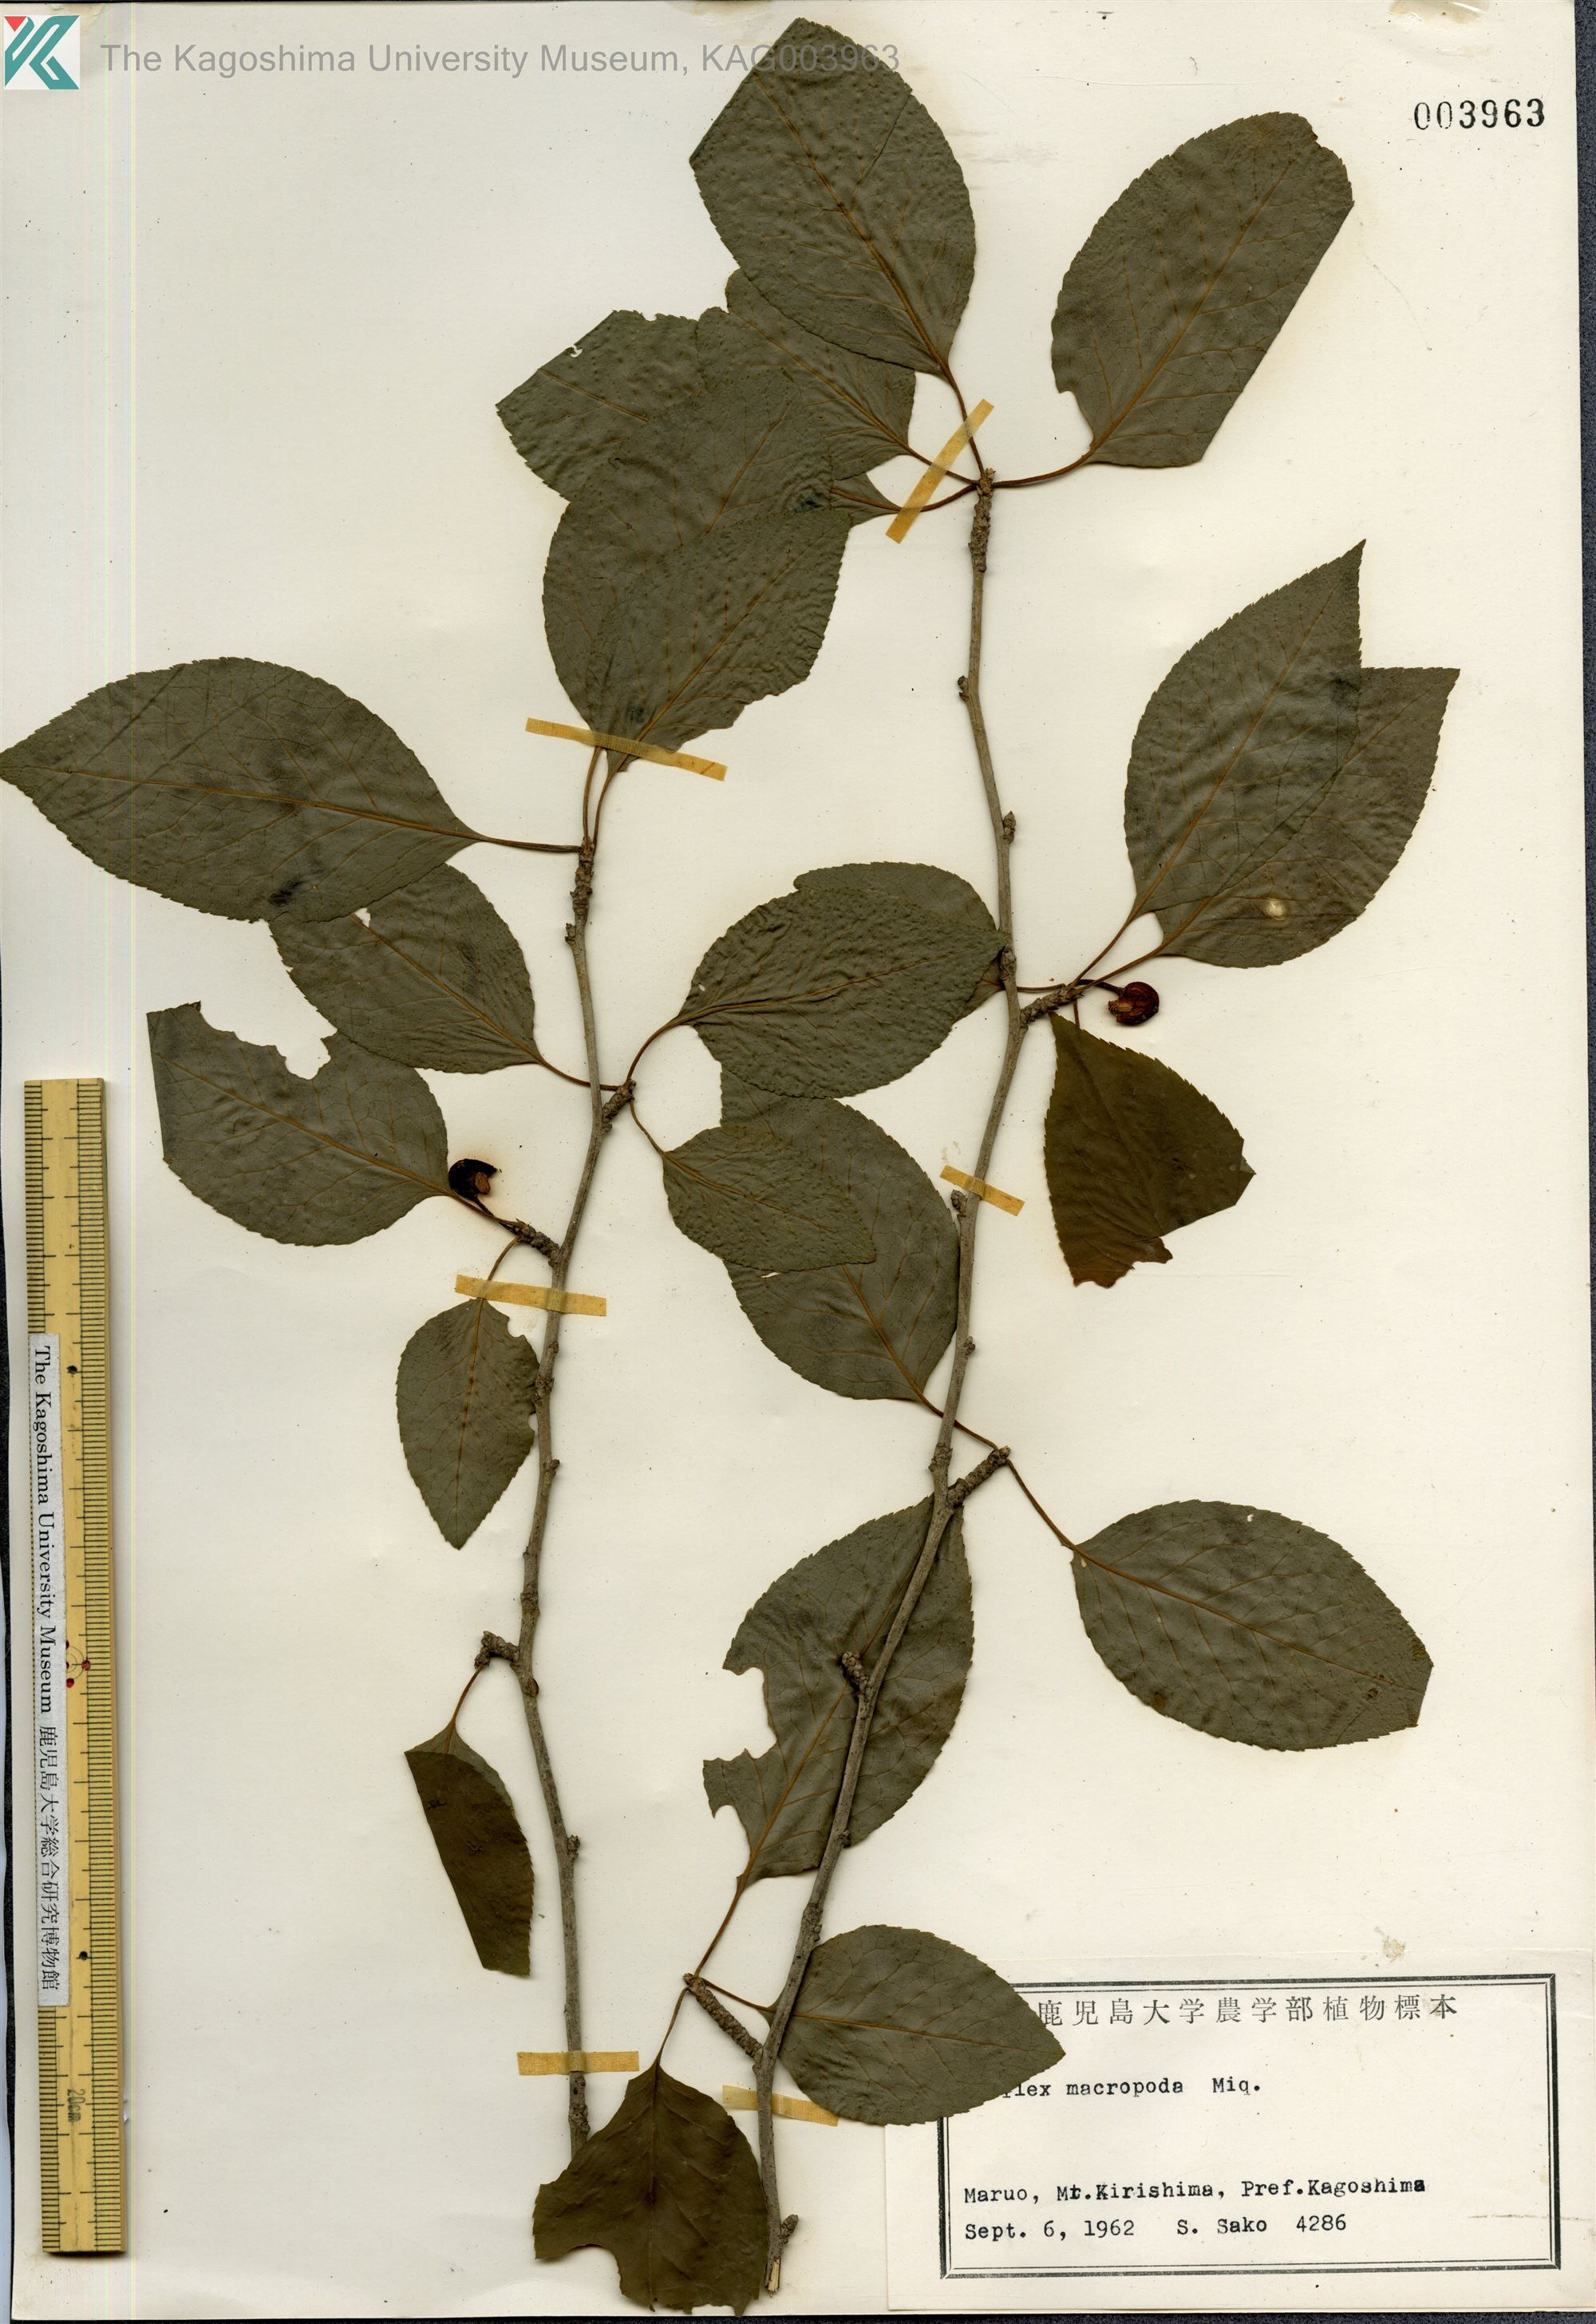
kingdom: Plantae
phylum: Tracheophyta
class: Magnoliopsida
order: Aquifoliales
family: Aquifoliaceae
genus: Ilex
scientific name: Ilex macropoda
